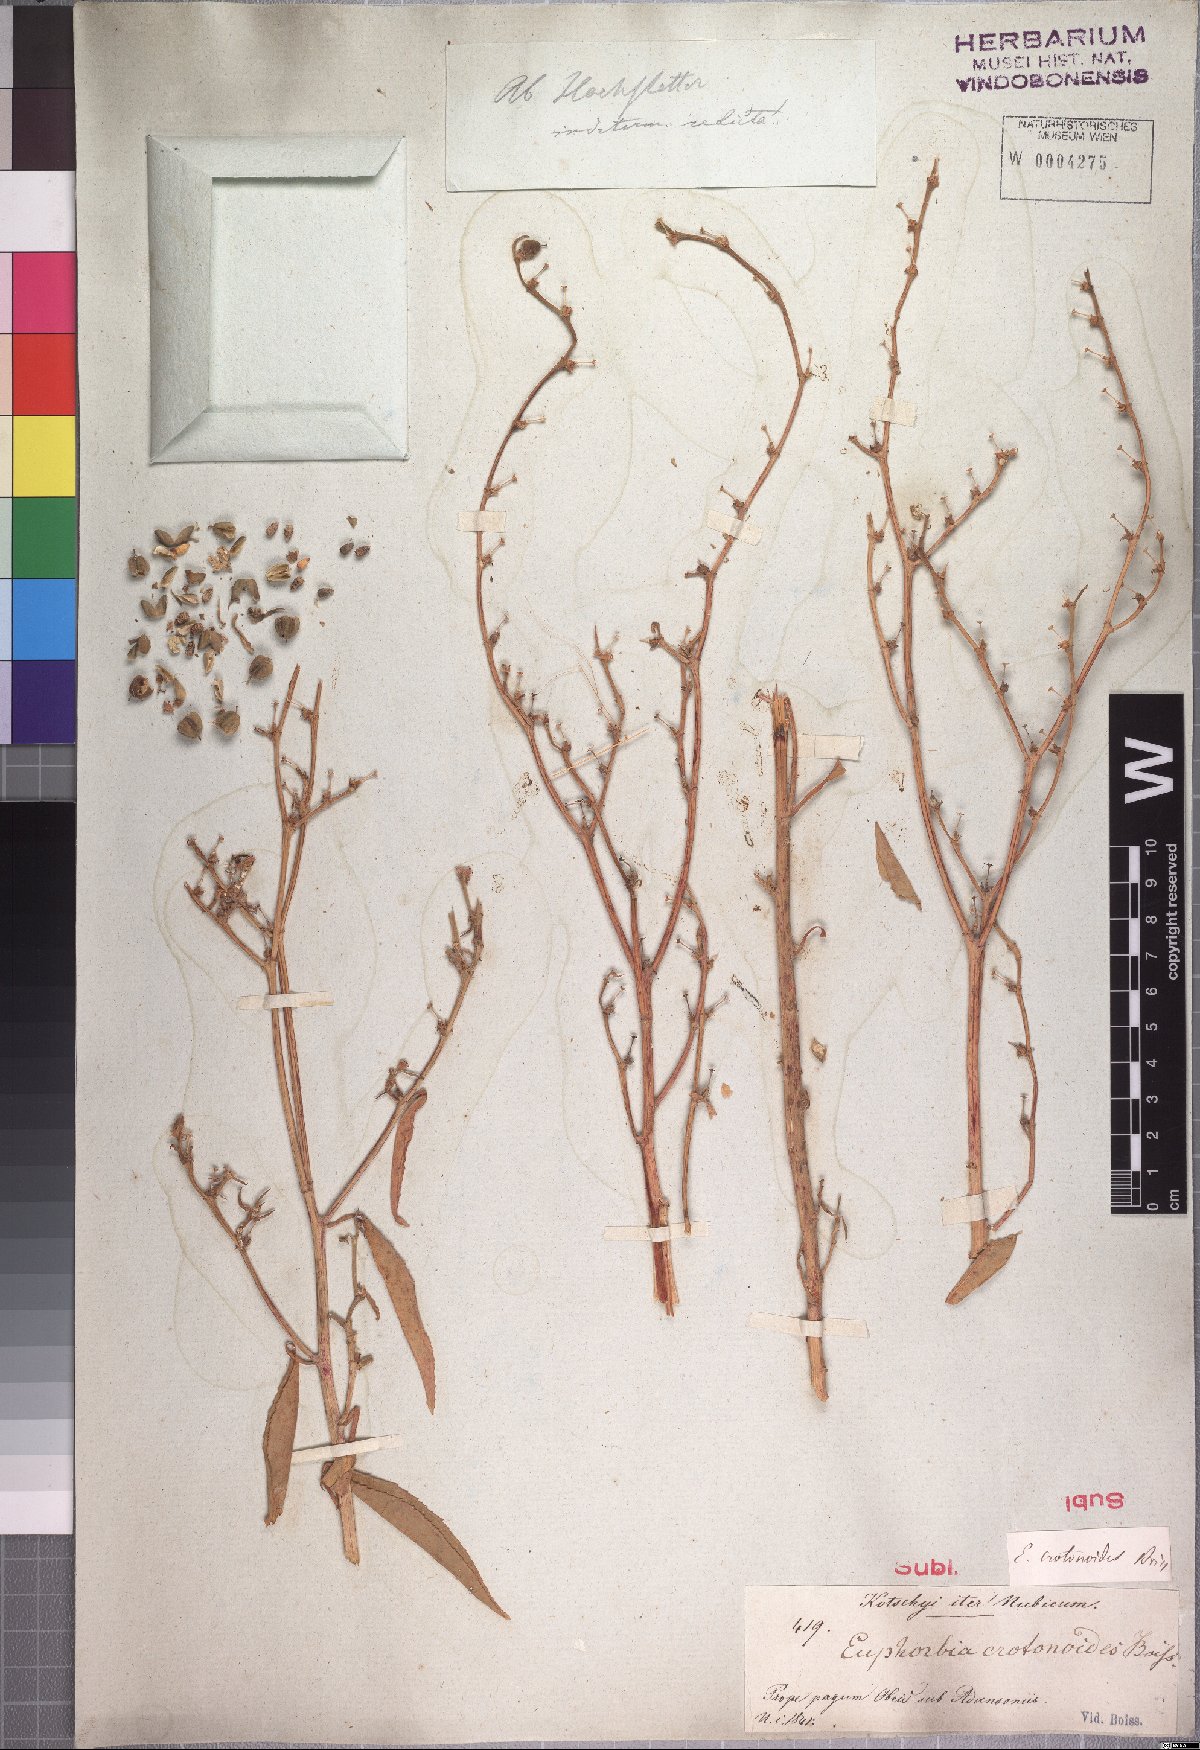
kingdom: Plantae
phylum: Tracheophyta
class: Magnoliopsida
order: Malpighiales
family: Euphorbiaceae
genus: Euphorbia
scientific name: Euphorbia crotonoides
